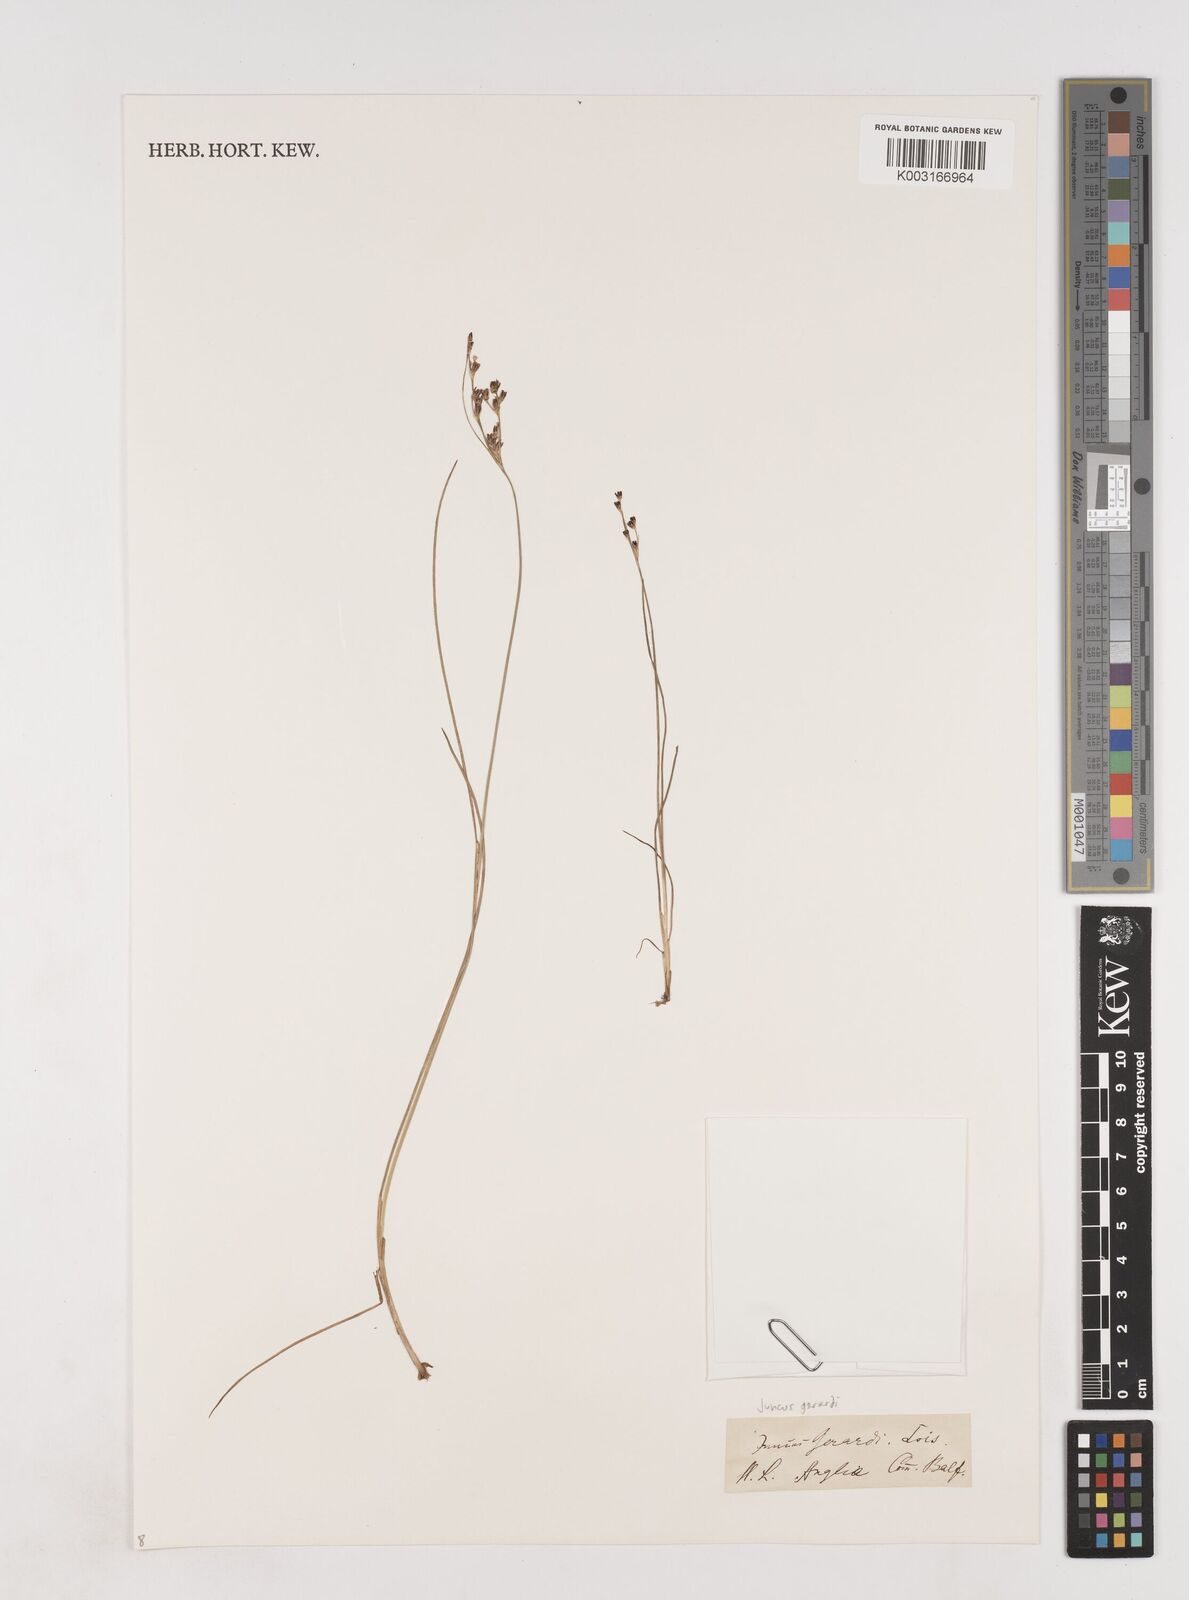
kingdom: Plantae
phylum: Tracheophyta
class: Liliopsida
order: Poales
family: Juncaceae
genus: Juncus
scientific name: Juncus gerardi
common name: Saltmarsh rush
